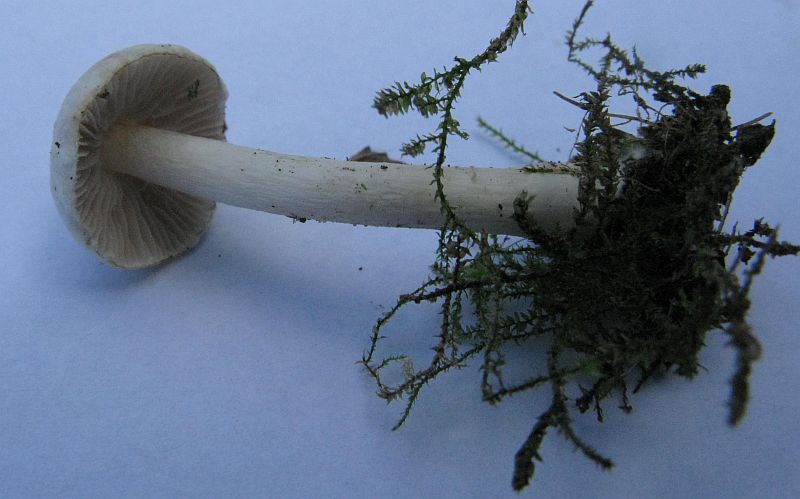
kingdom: Fungi
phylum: Basidiomycota
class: Agaricomycetes
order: Agaricales
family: Inocybaceae
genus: Inocybe
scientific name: Inocybe
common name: almindelig trævlhat
